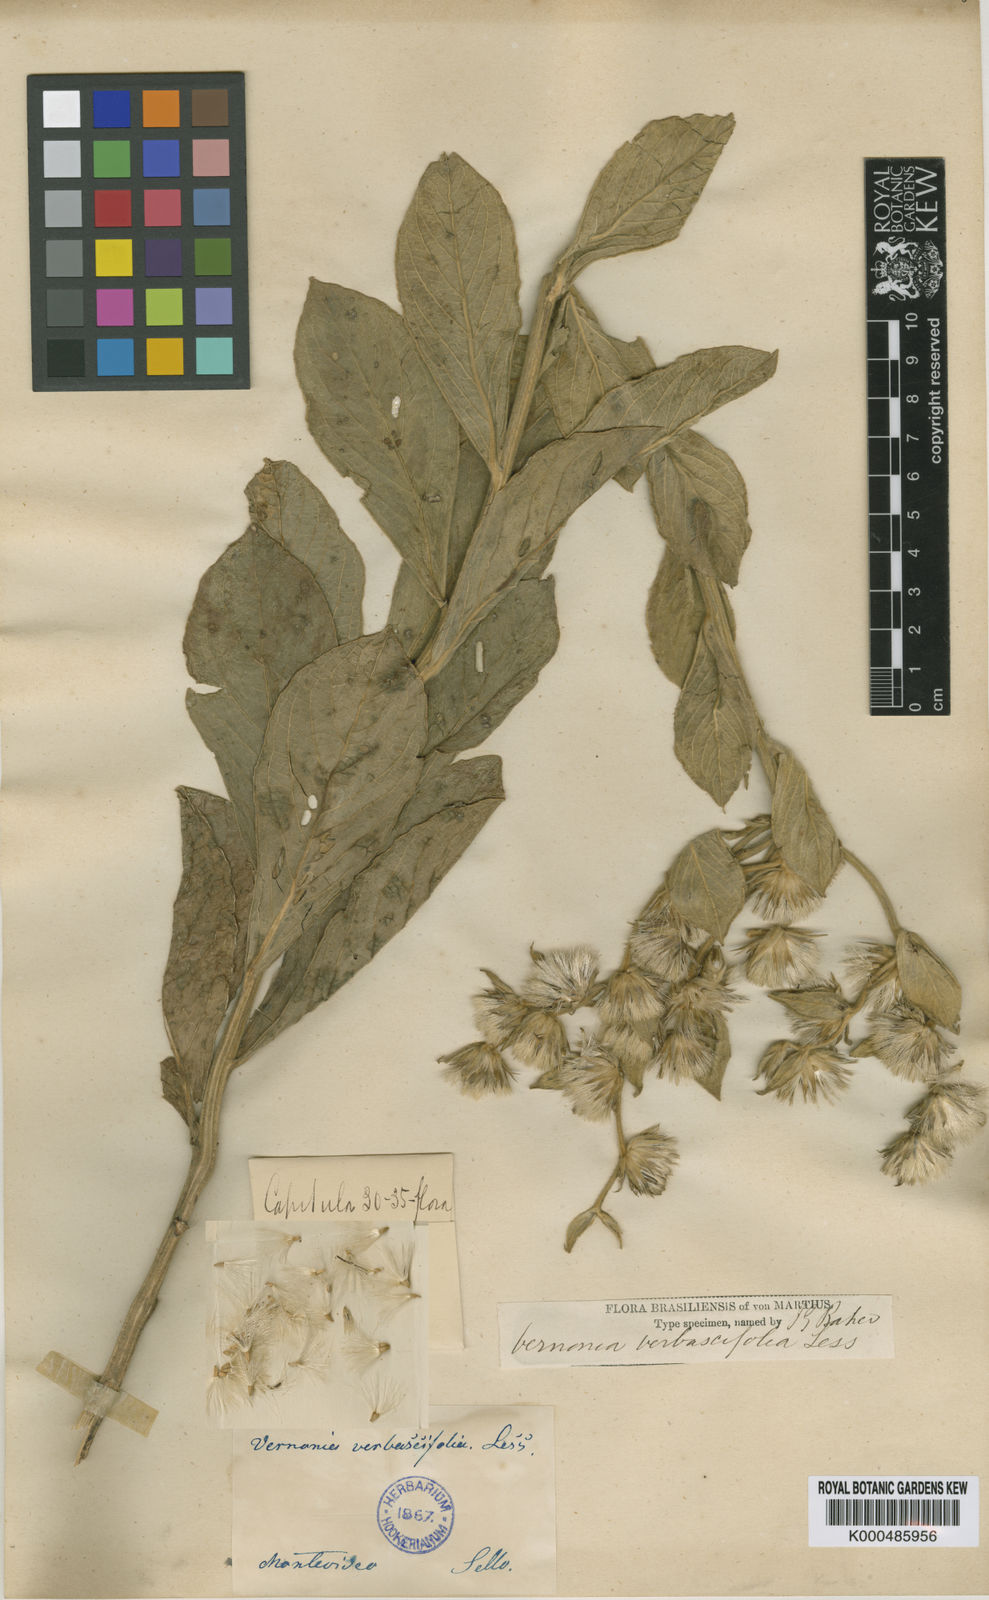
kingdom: Plantae
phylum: Tracheophyta
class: Magnoliopsida
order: Asterales
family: Asteraceae
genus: Chrysolaena
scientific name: Chrysolaena verbascifolia
